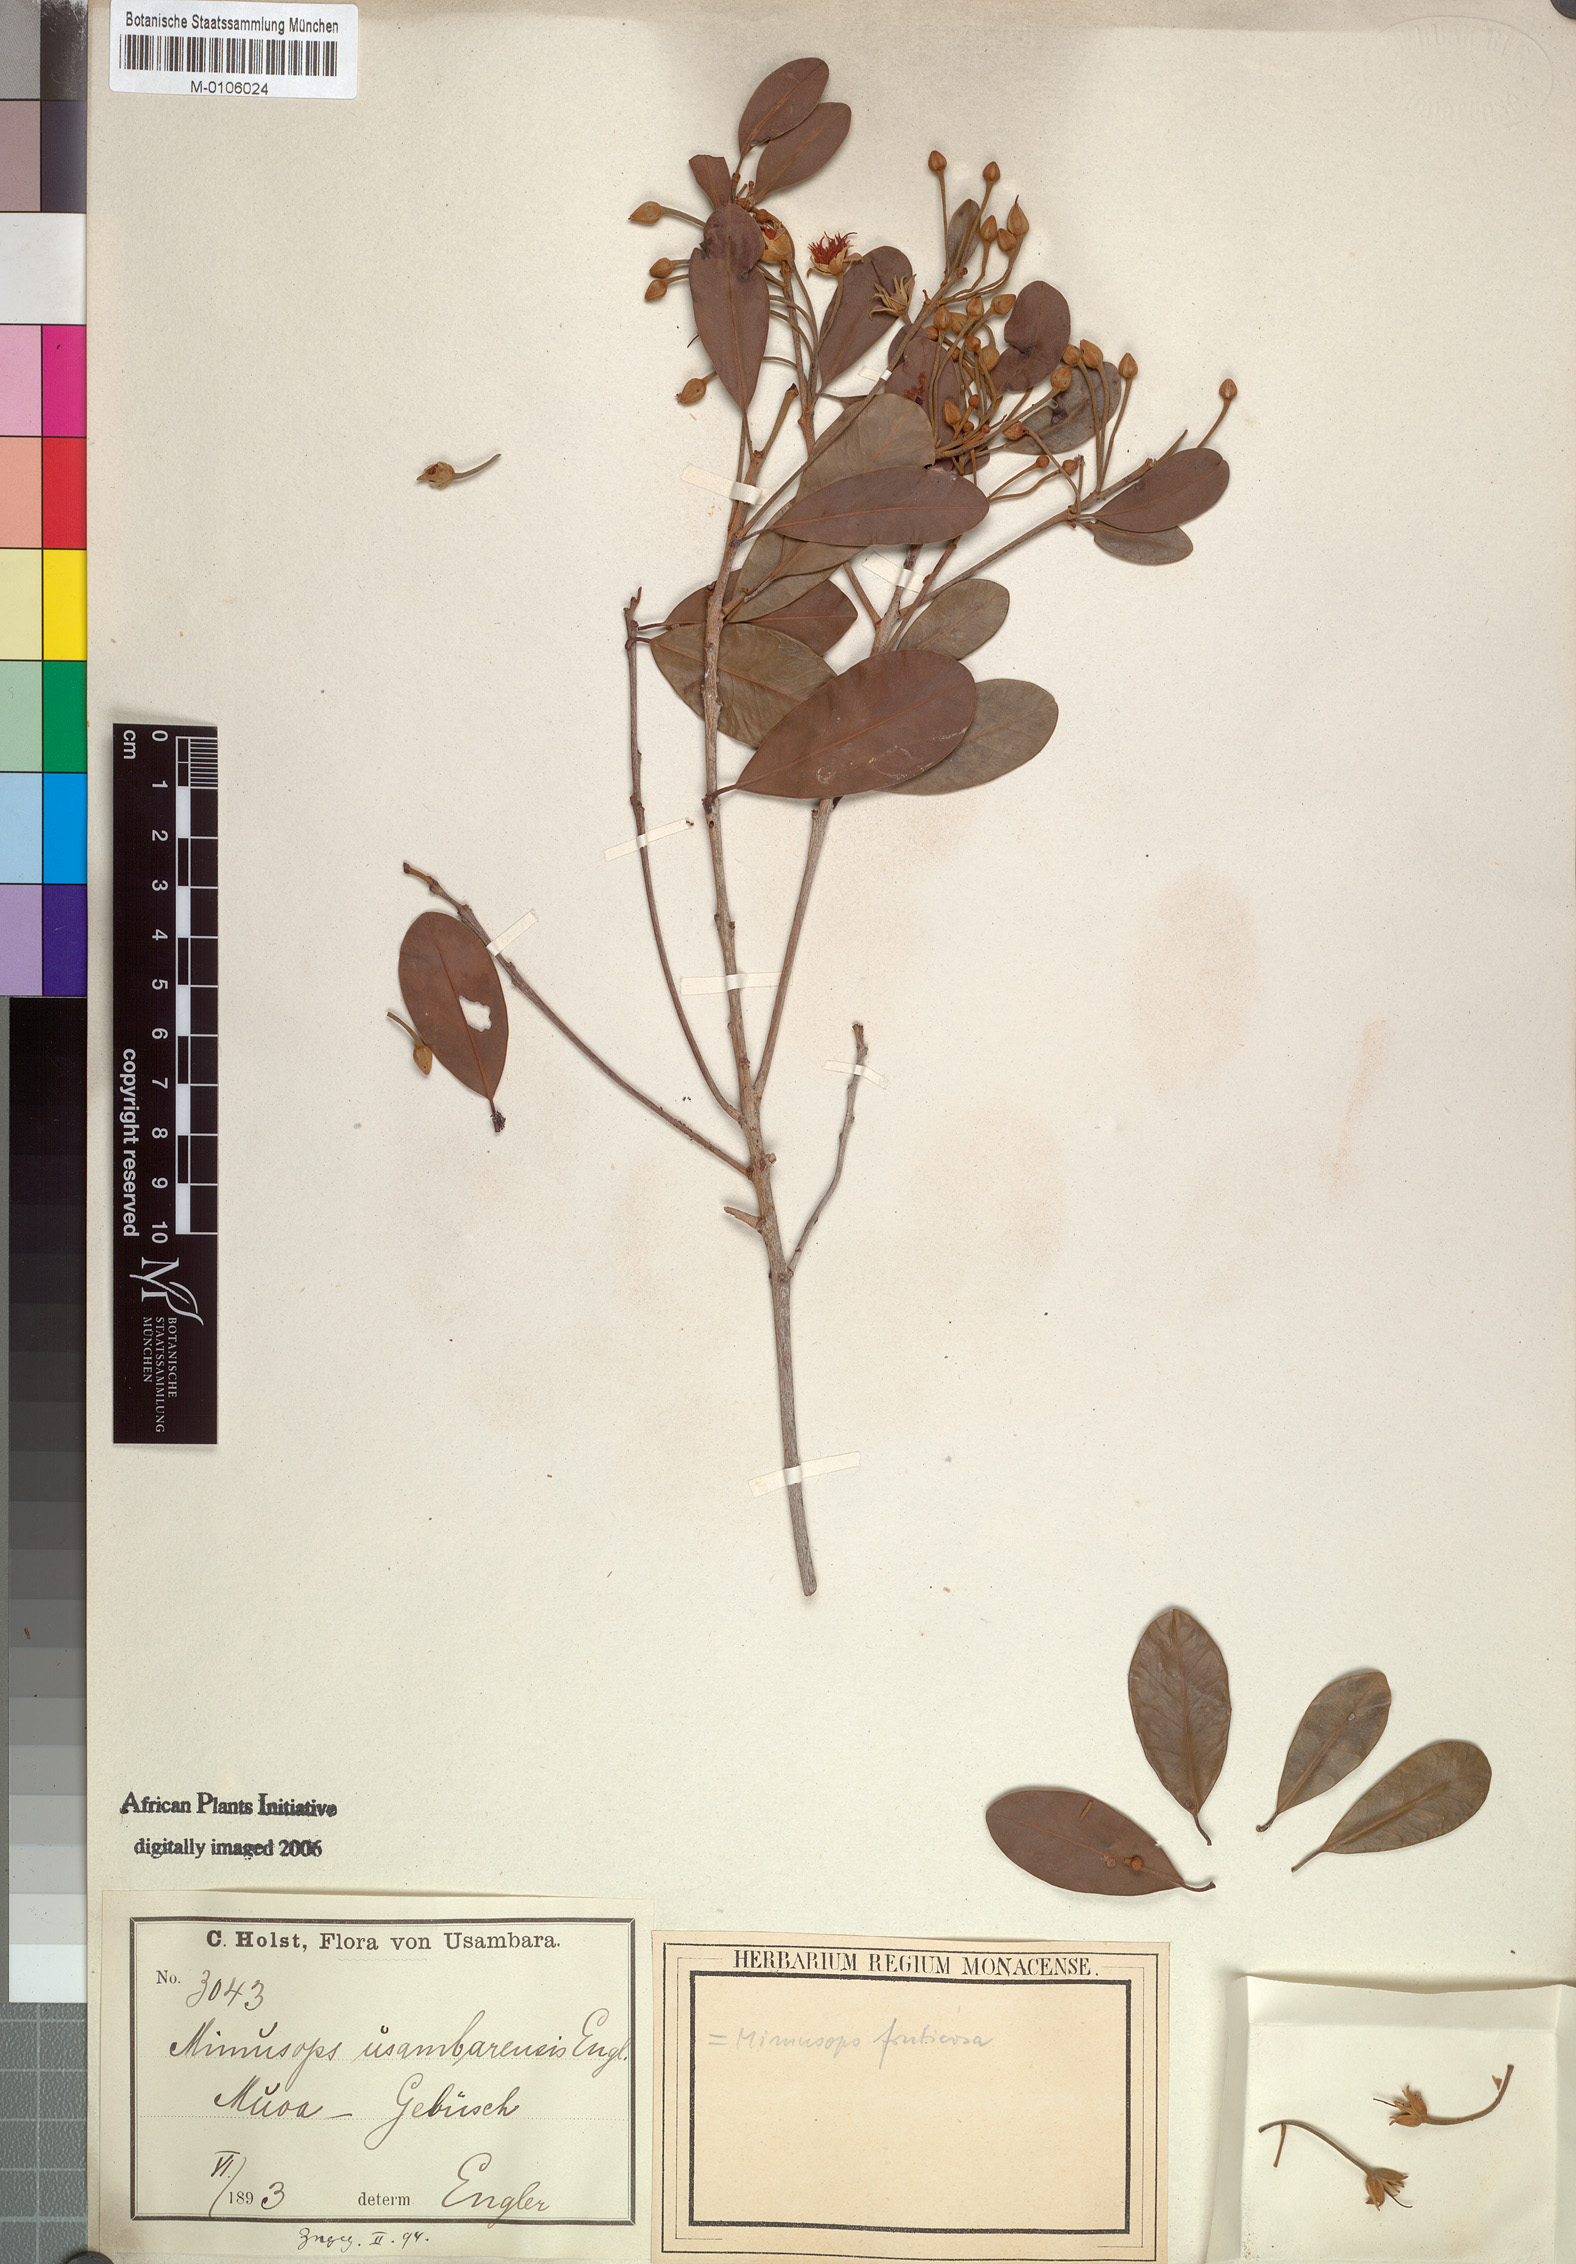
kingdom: Plantae
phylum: Tracheophyta
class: Magnoliopsida
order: Ericales
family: Sapotaceae
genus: Mimusops
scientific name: Mimusops fruticosa
